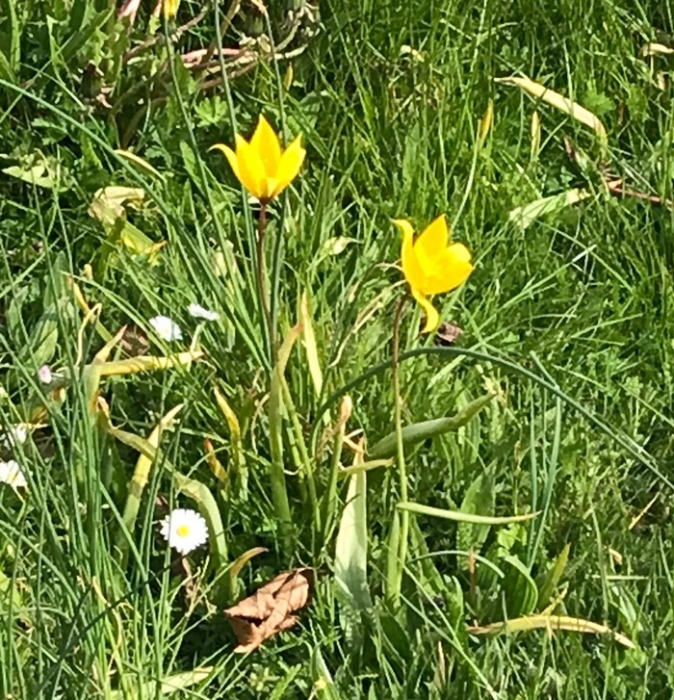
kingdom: Plantae
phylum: Tracheophyta
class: Liliopsida
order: Liliales
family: Liliaceae
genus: Tulipa
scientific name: Tulipa sylvestris
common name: Vild tulipan
